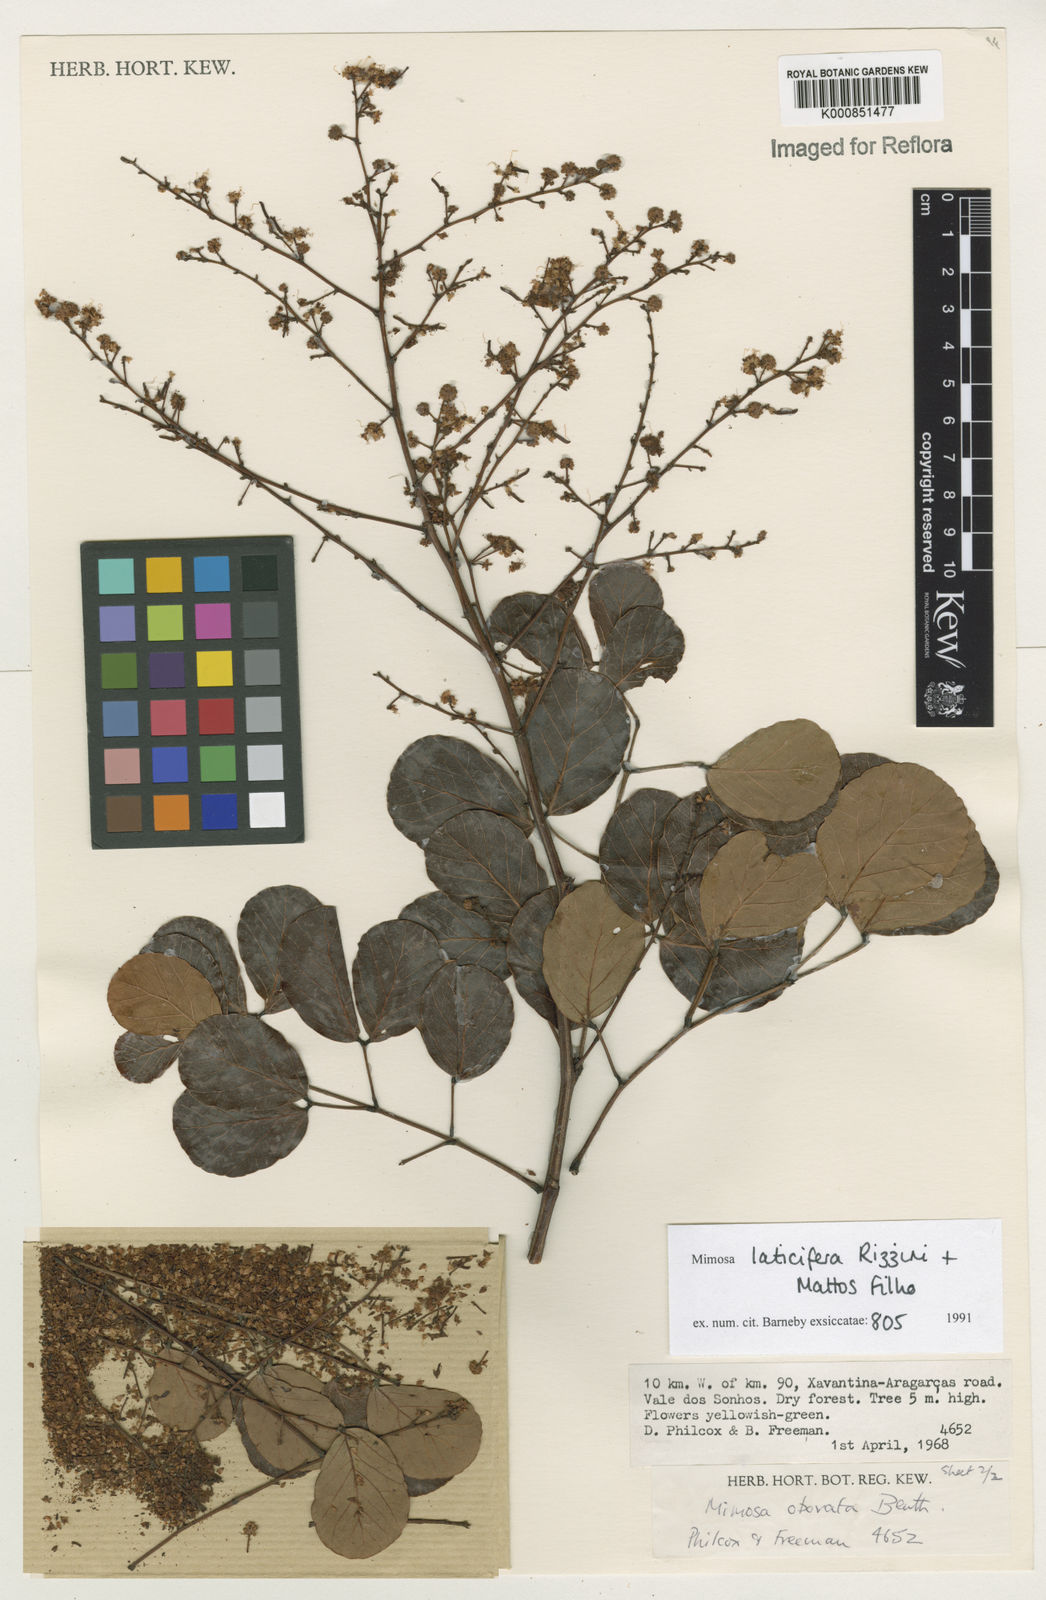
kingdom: Plantae
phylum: Tracheophyta
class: Magnoliopsida
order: Fabales
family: Fabaceae
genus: Mimosa
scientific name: Mimosa laticifera
